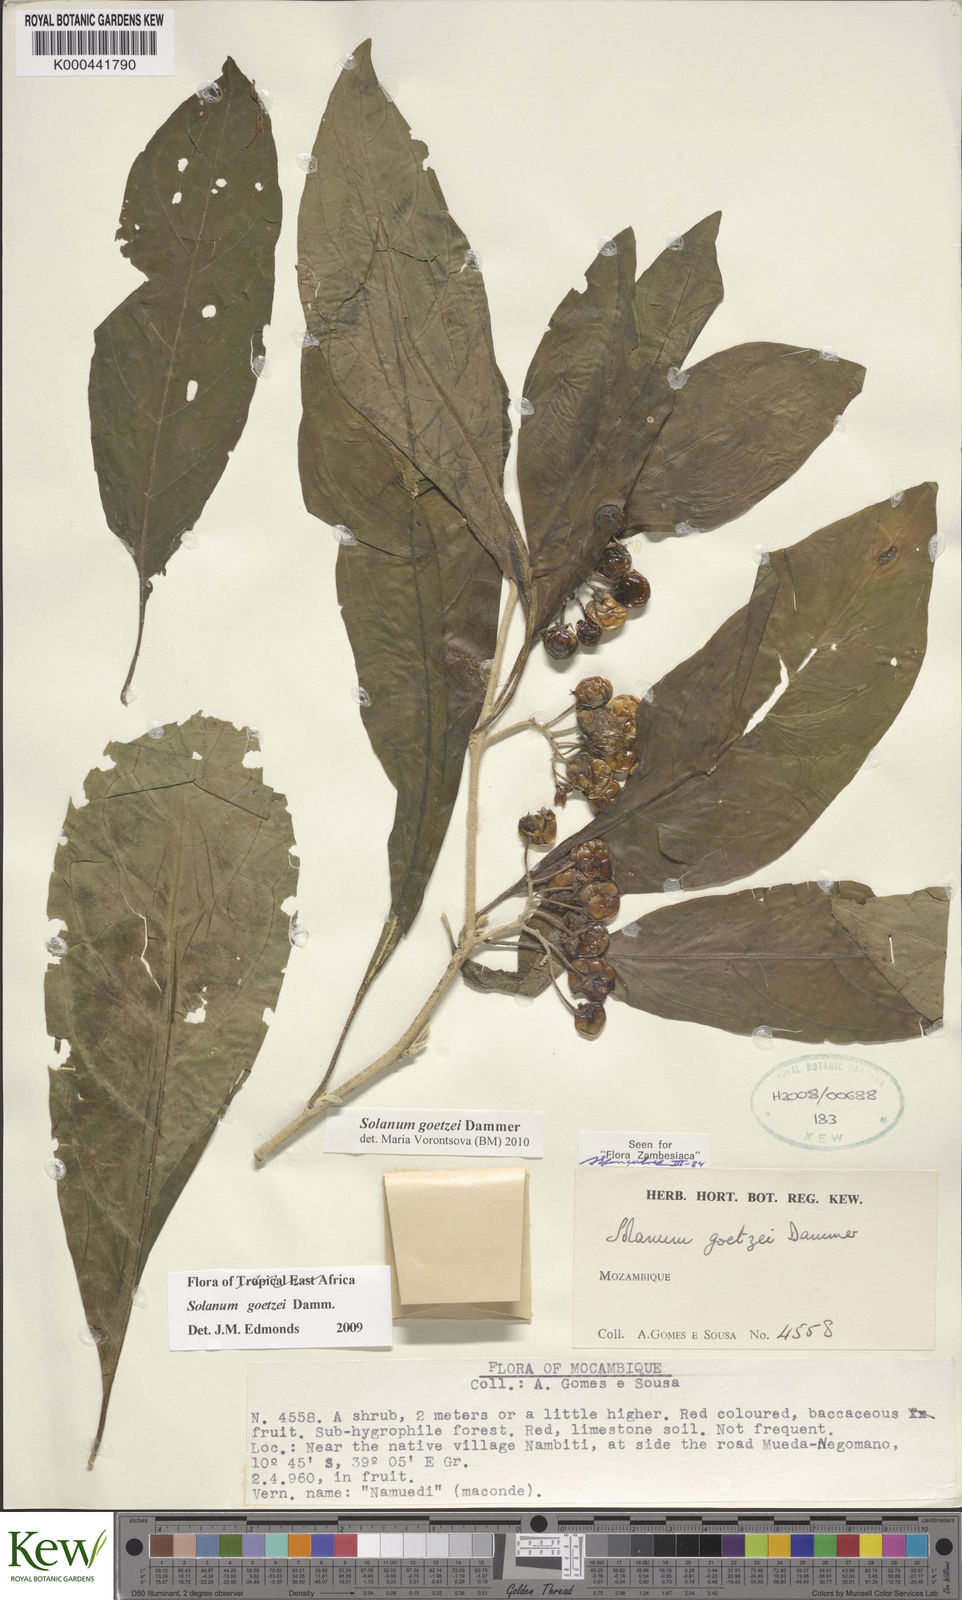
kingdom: Plantae
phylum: Tracheophyta
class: Magnoliopsida
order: Solanales
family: Solanaceae
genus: Solanum
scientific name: Solanum goetzei
